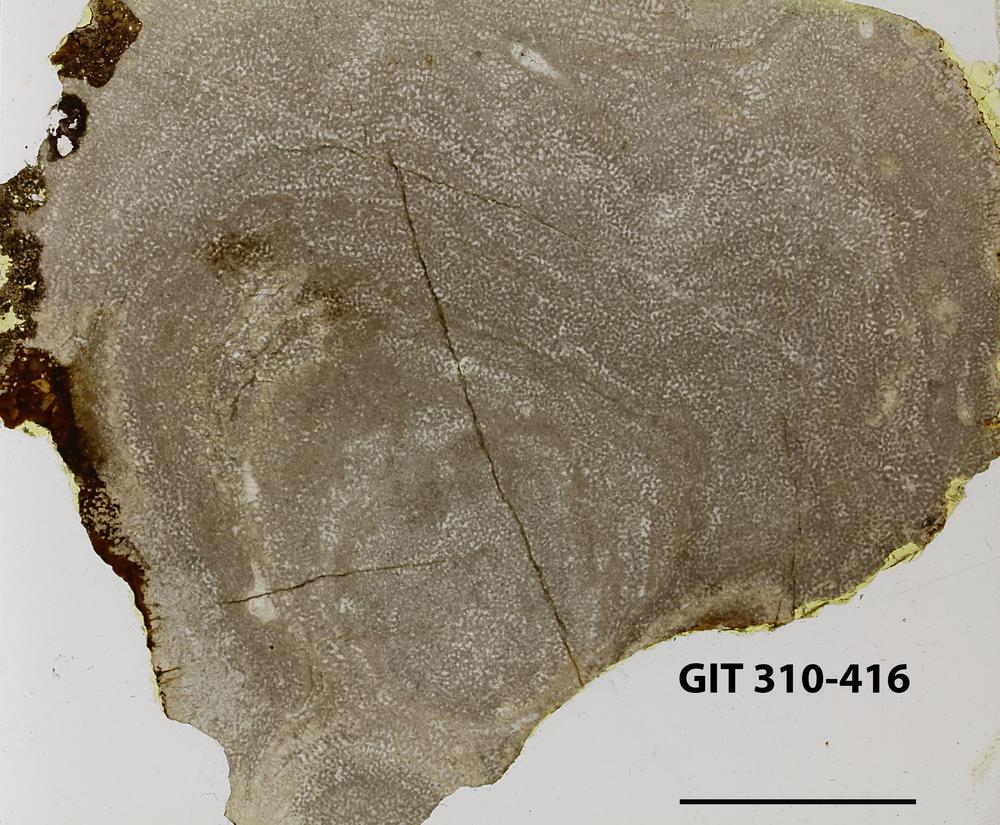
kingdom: Animalia
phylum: Porifera
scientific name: Porifera
